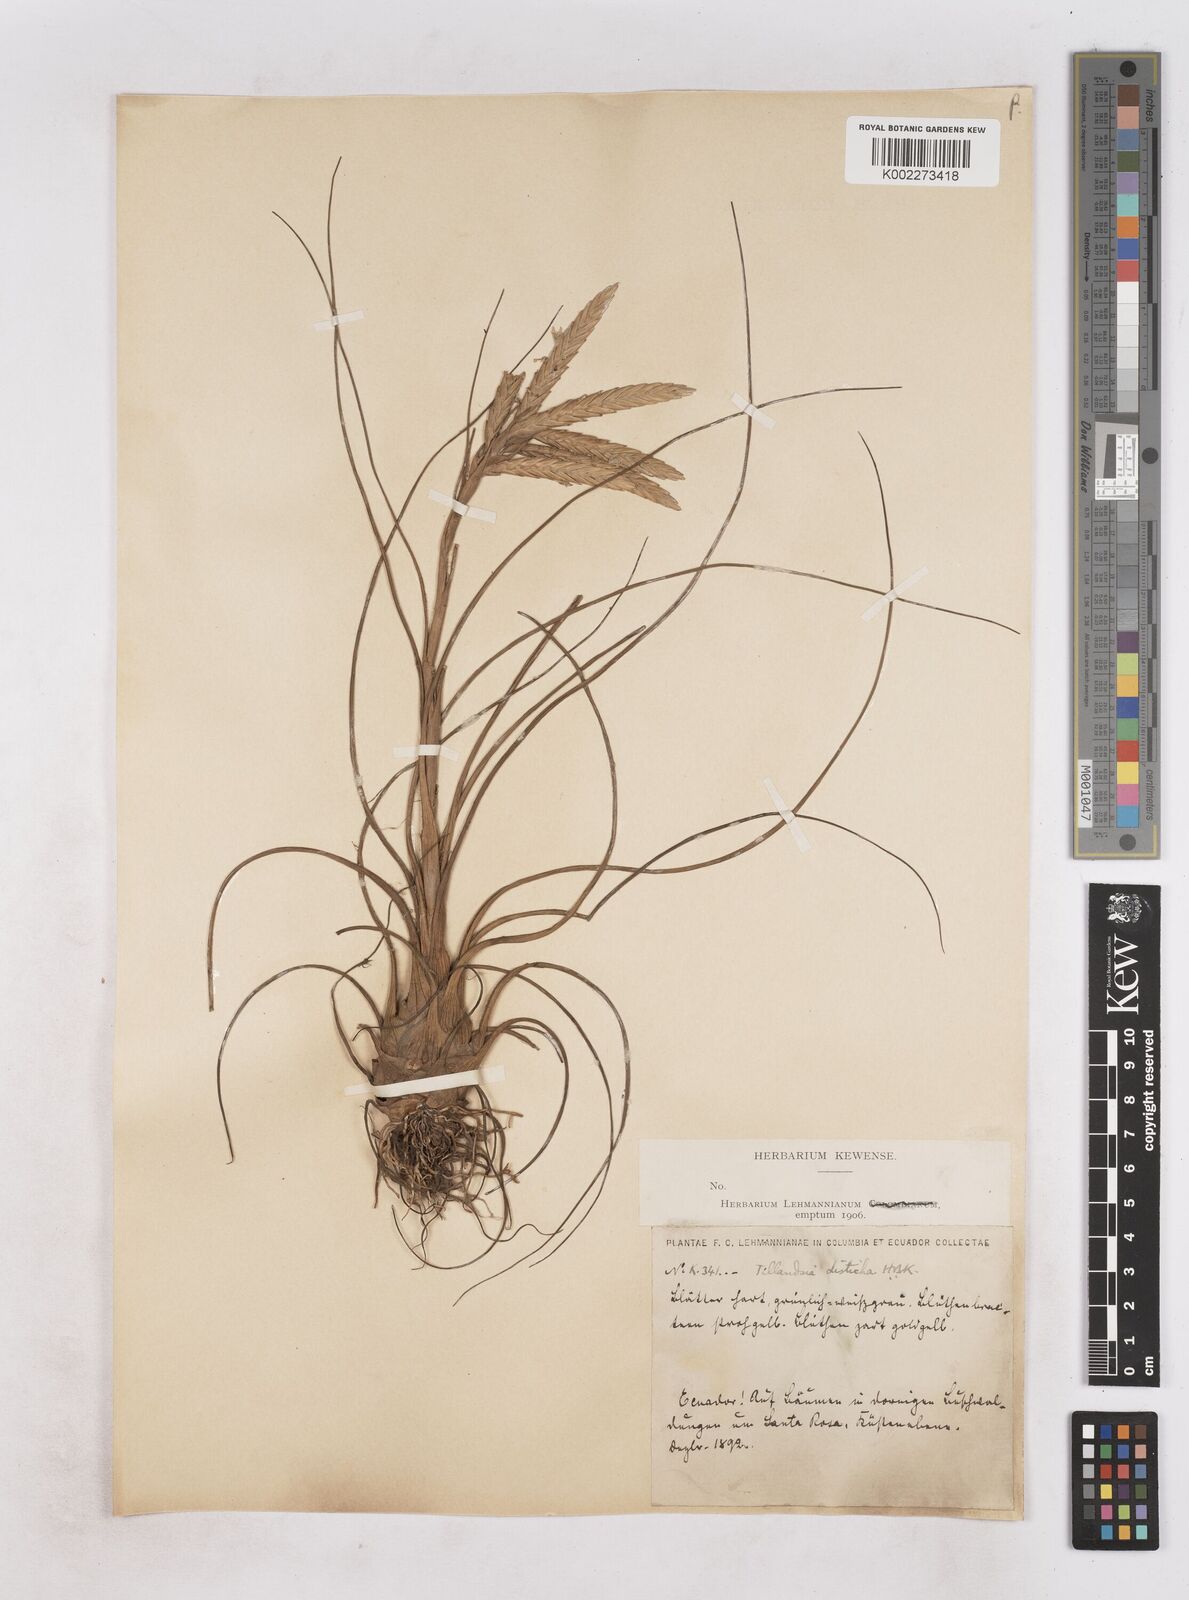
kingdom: Plantae
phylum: Tracheophyta
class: Liliopsida
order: Poales
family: Bromeliaceae
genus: Tillandsia
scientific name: Tillandsia
